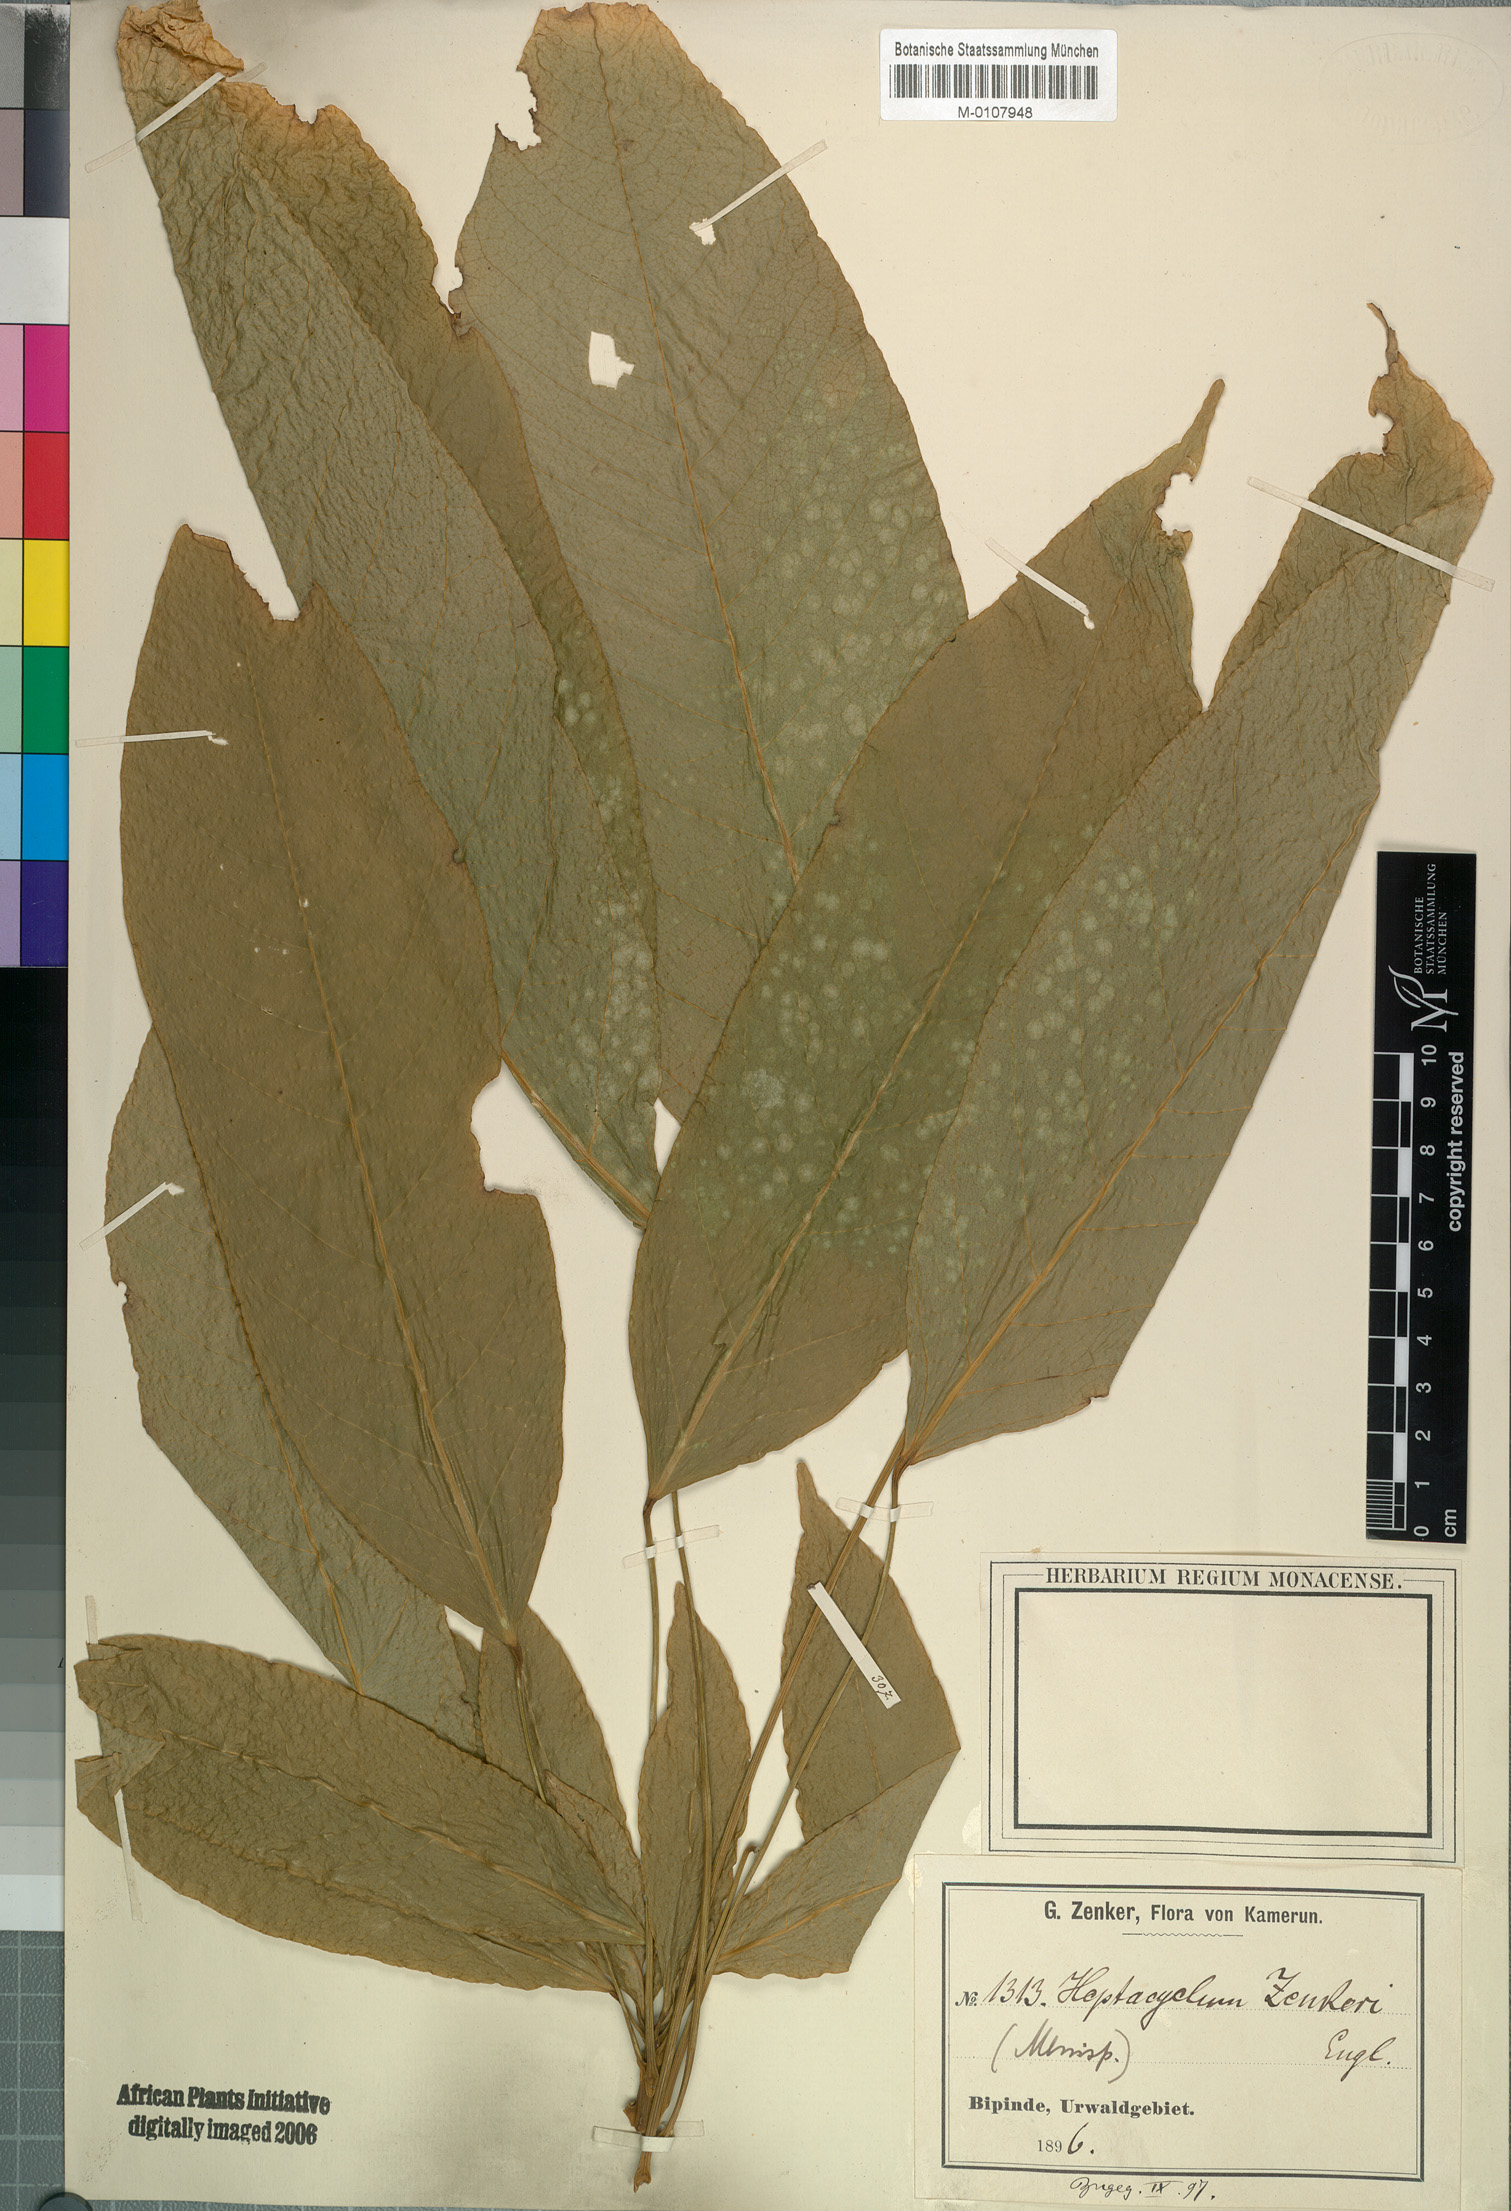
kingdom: Plantae
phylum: Tracheophyta
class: Magnoliopsida
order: Ranunculales
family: Menispermaceae
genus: Penianthus
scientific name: Penianthus zenkeri
